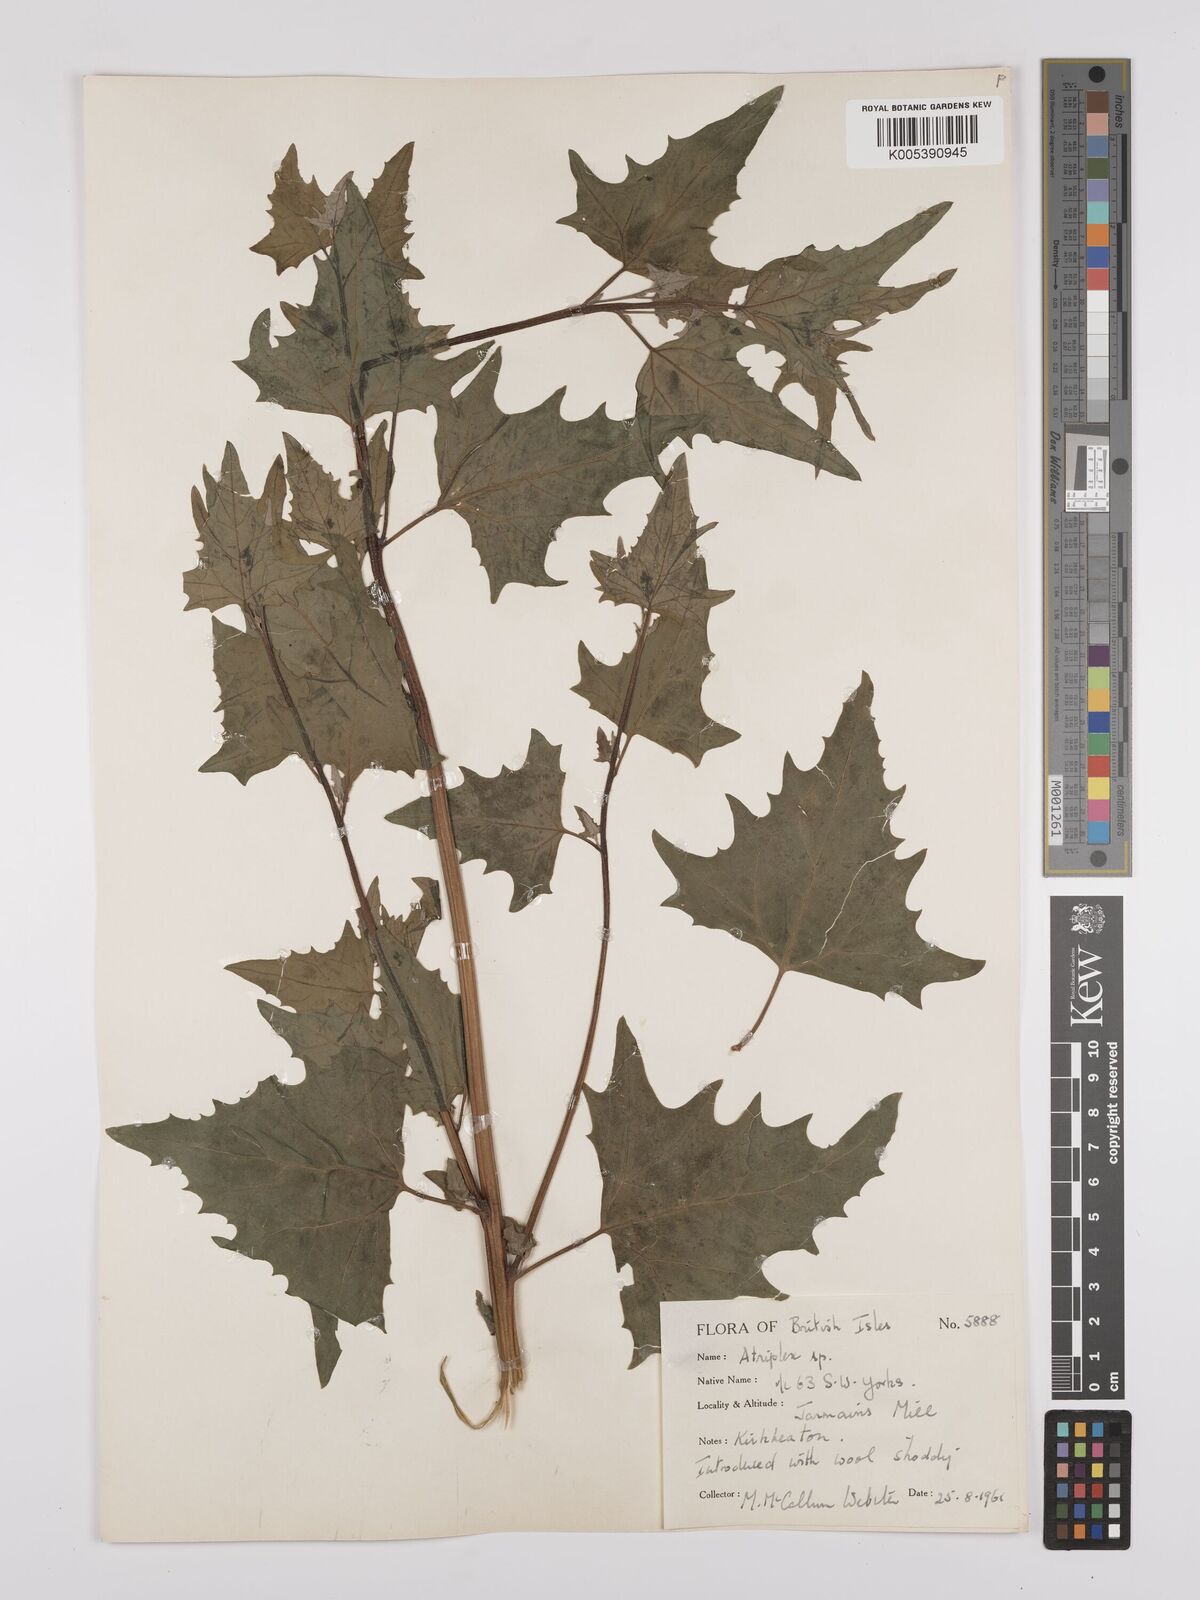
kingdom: Plantae
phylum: Tracheophyta
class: Magnoliopsida
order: Caryophyllales
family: Amaranthaceae
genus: Atriplex
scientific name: Atriplex micrantha
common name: Twoscale saltbush
